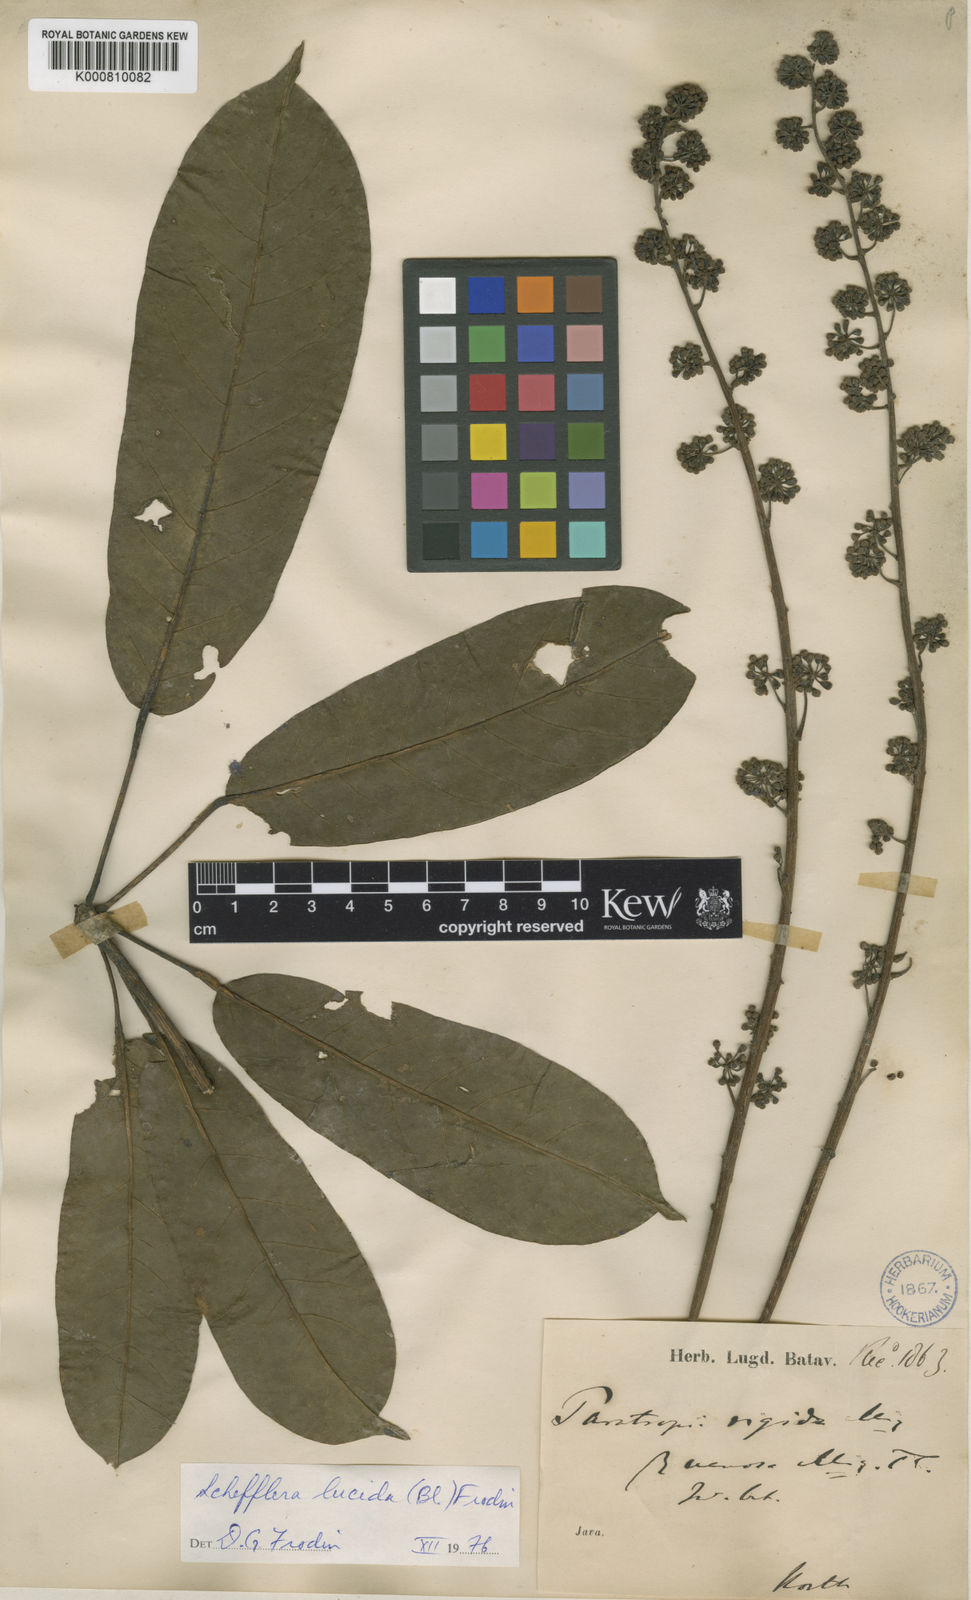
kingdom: Plantae
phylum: Tracheophyta
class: Magnoliopsida
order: Apiales
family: Araliaceae
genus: Heptapleurum
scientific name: Heptapleurum rigidum
